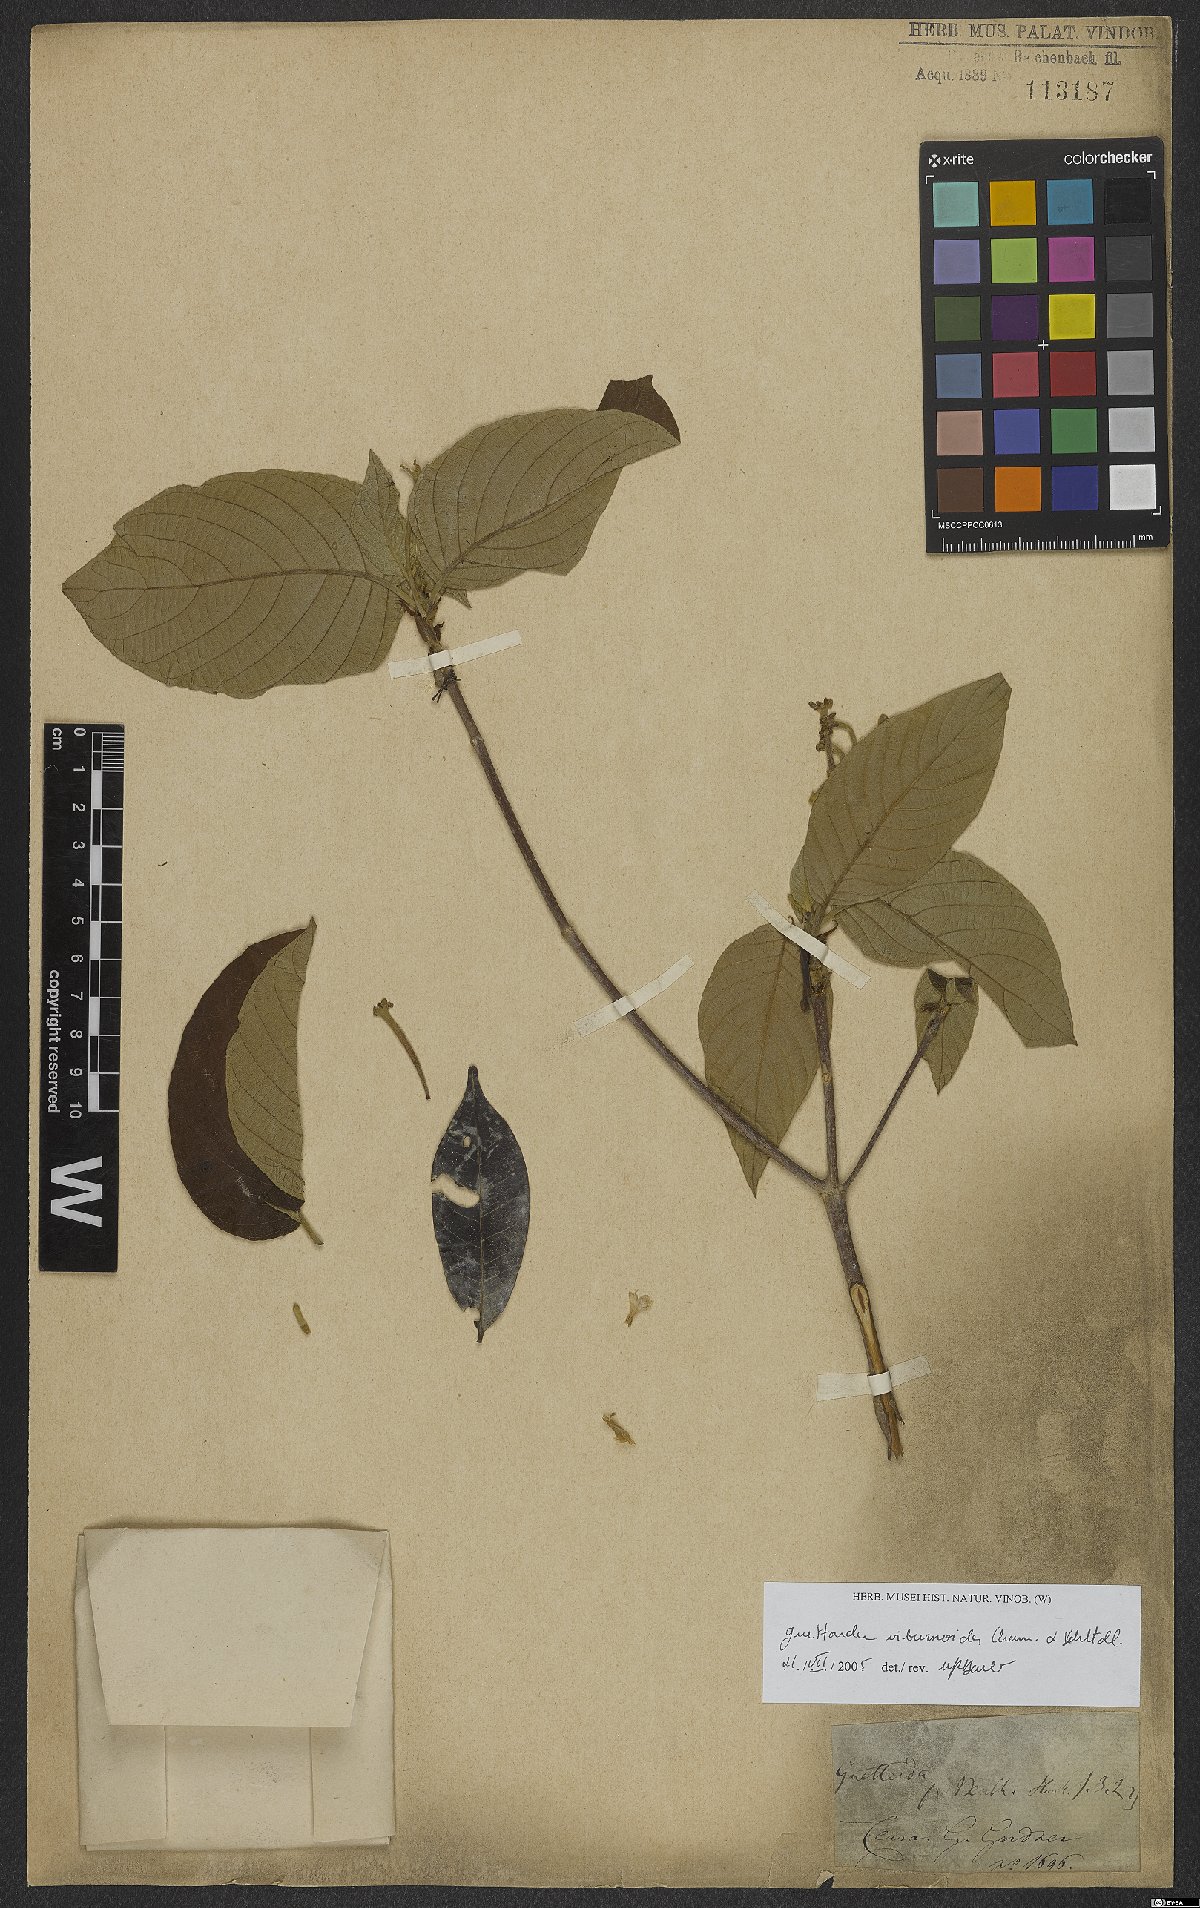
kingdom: Plantae
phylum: Tracheophyta
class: Magnoliopsida
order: Gentianales
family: Rubiaceae
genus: Guettarda
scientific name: Guettarda viburnoides
